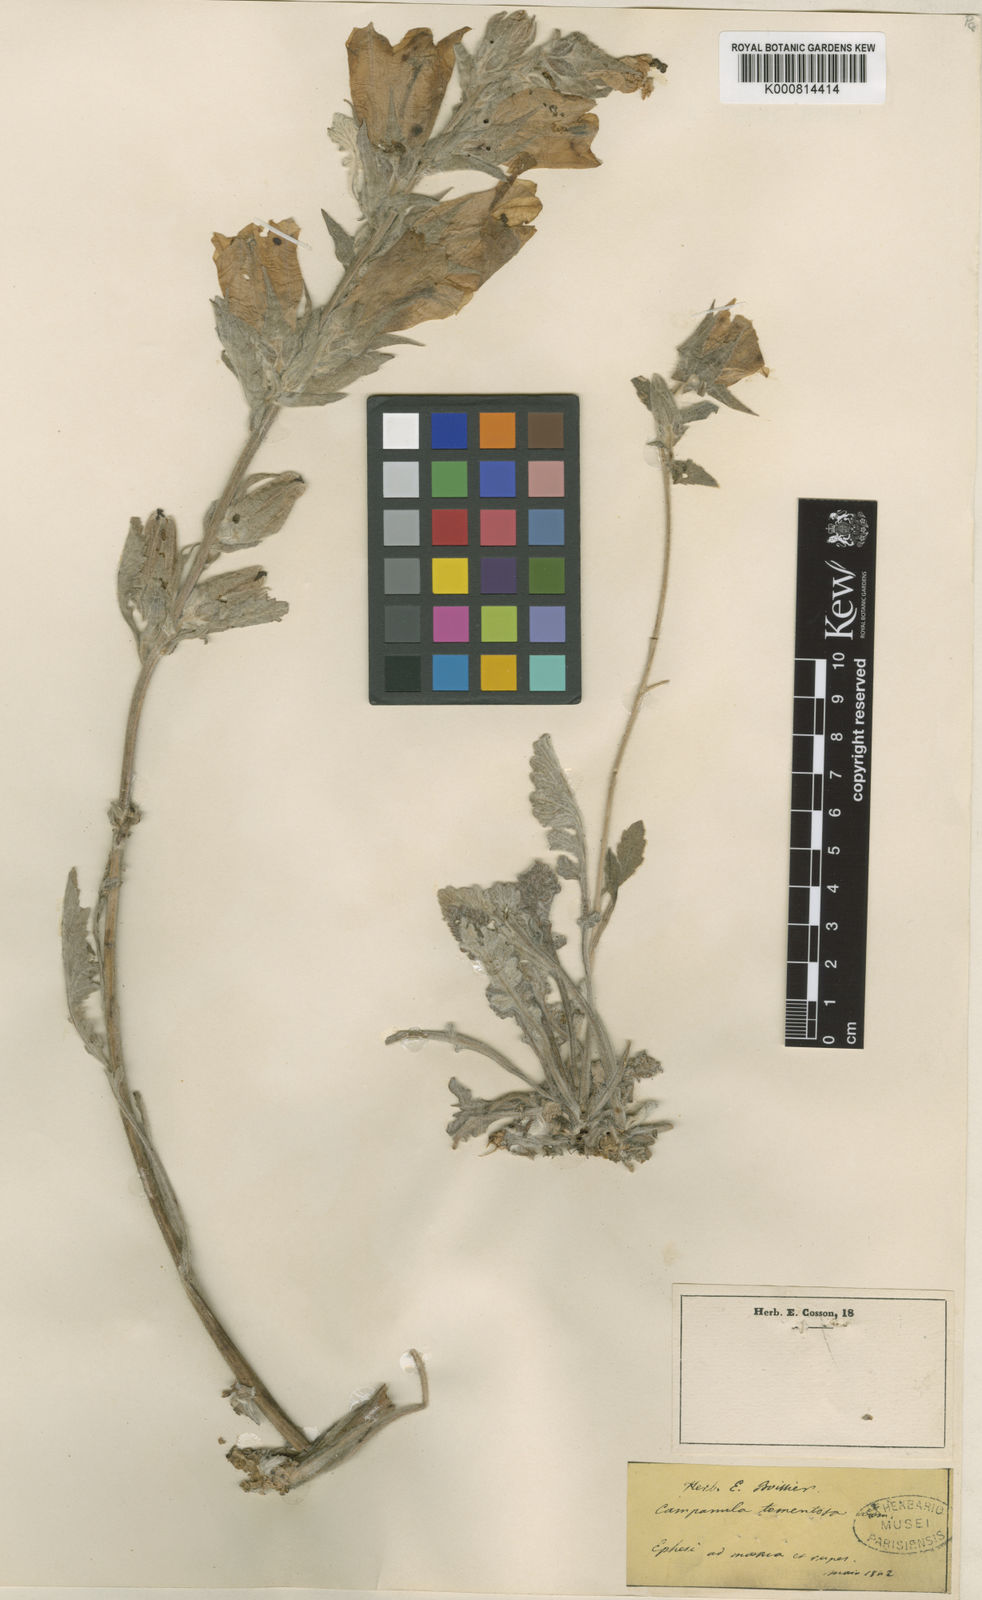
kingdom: Plantae
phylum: Tracheophyta
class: Magnoliopsida
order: Asterales
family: Campanulaceae
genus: Campanula
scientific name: Campanula tomentosa
